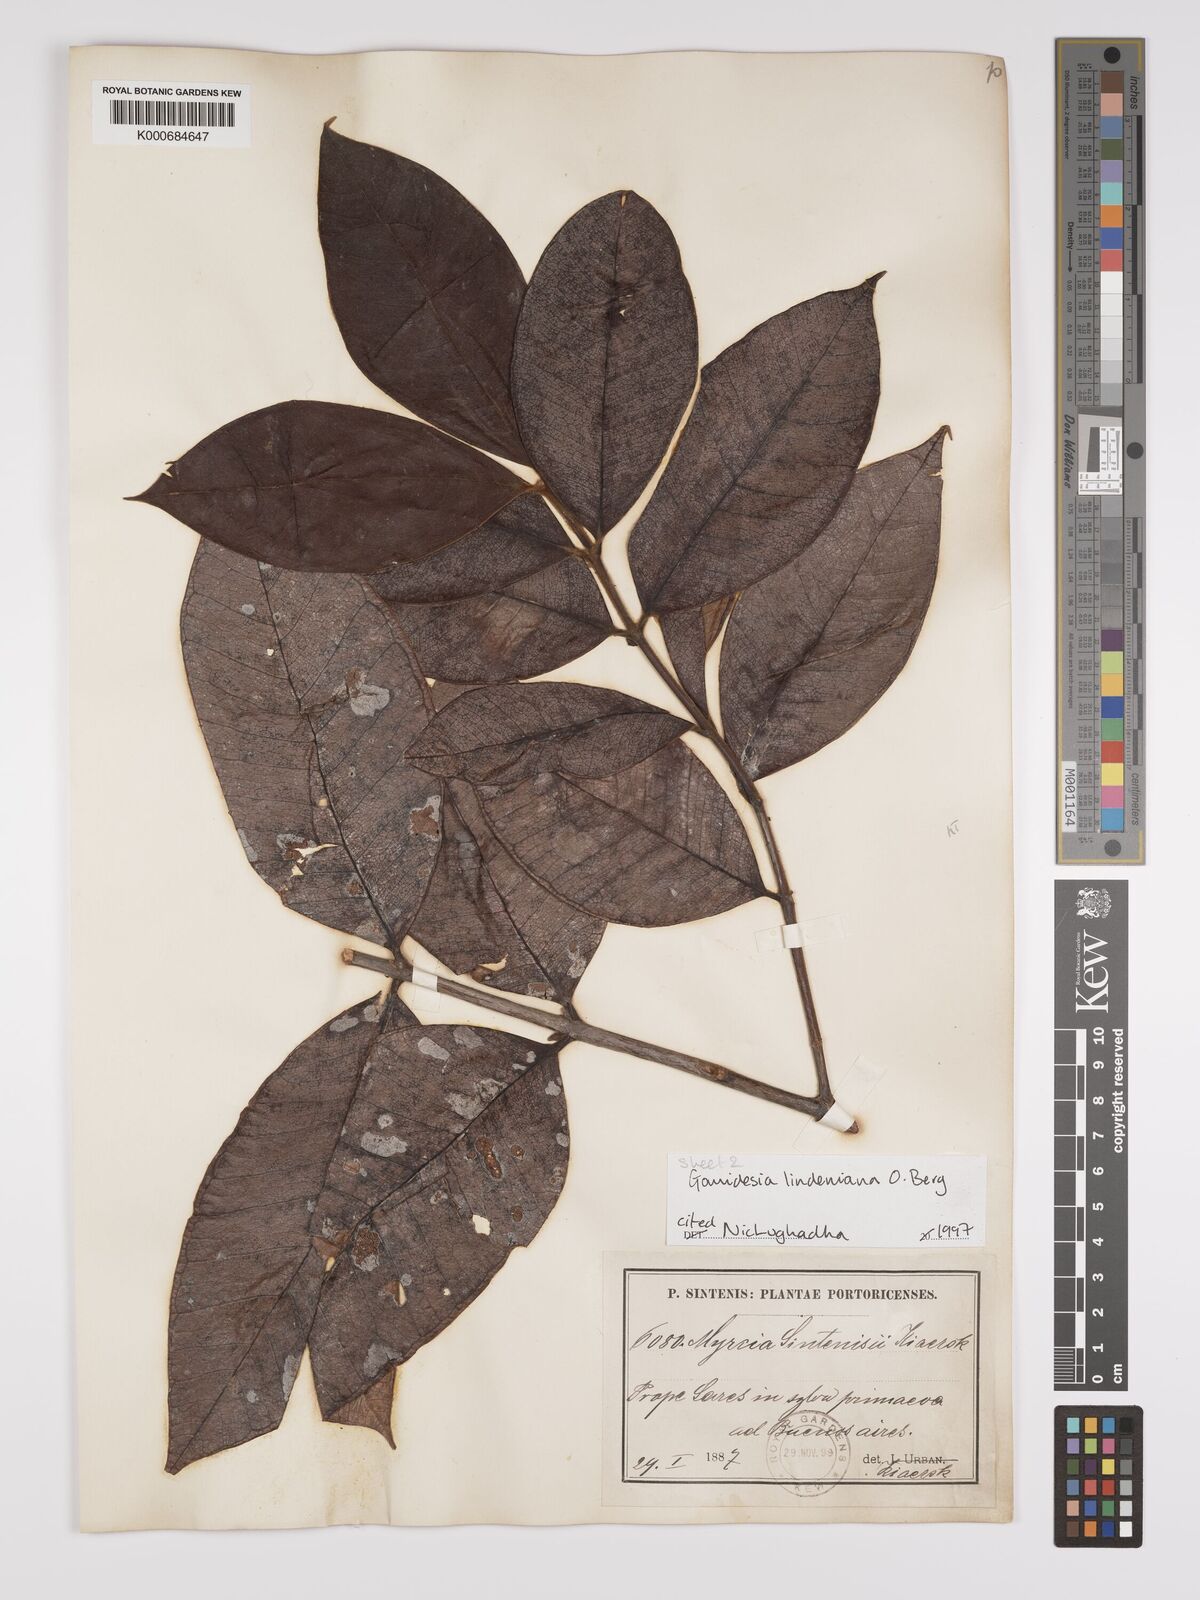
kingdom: Plantae
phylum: Tracheophyta
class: Magnoliopsida
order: Myrtales
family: Myrtaceae
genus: Myrcia
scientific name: Myrcia fenzliana
